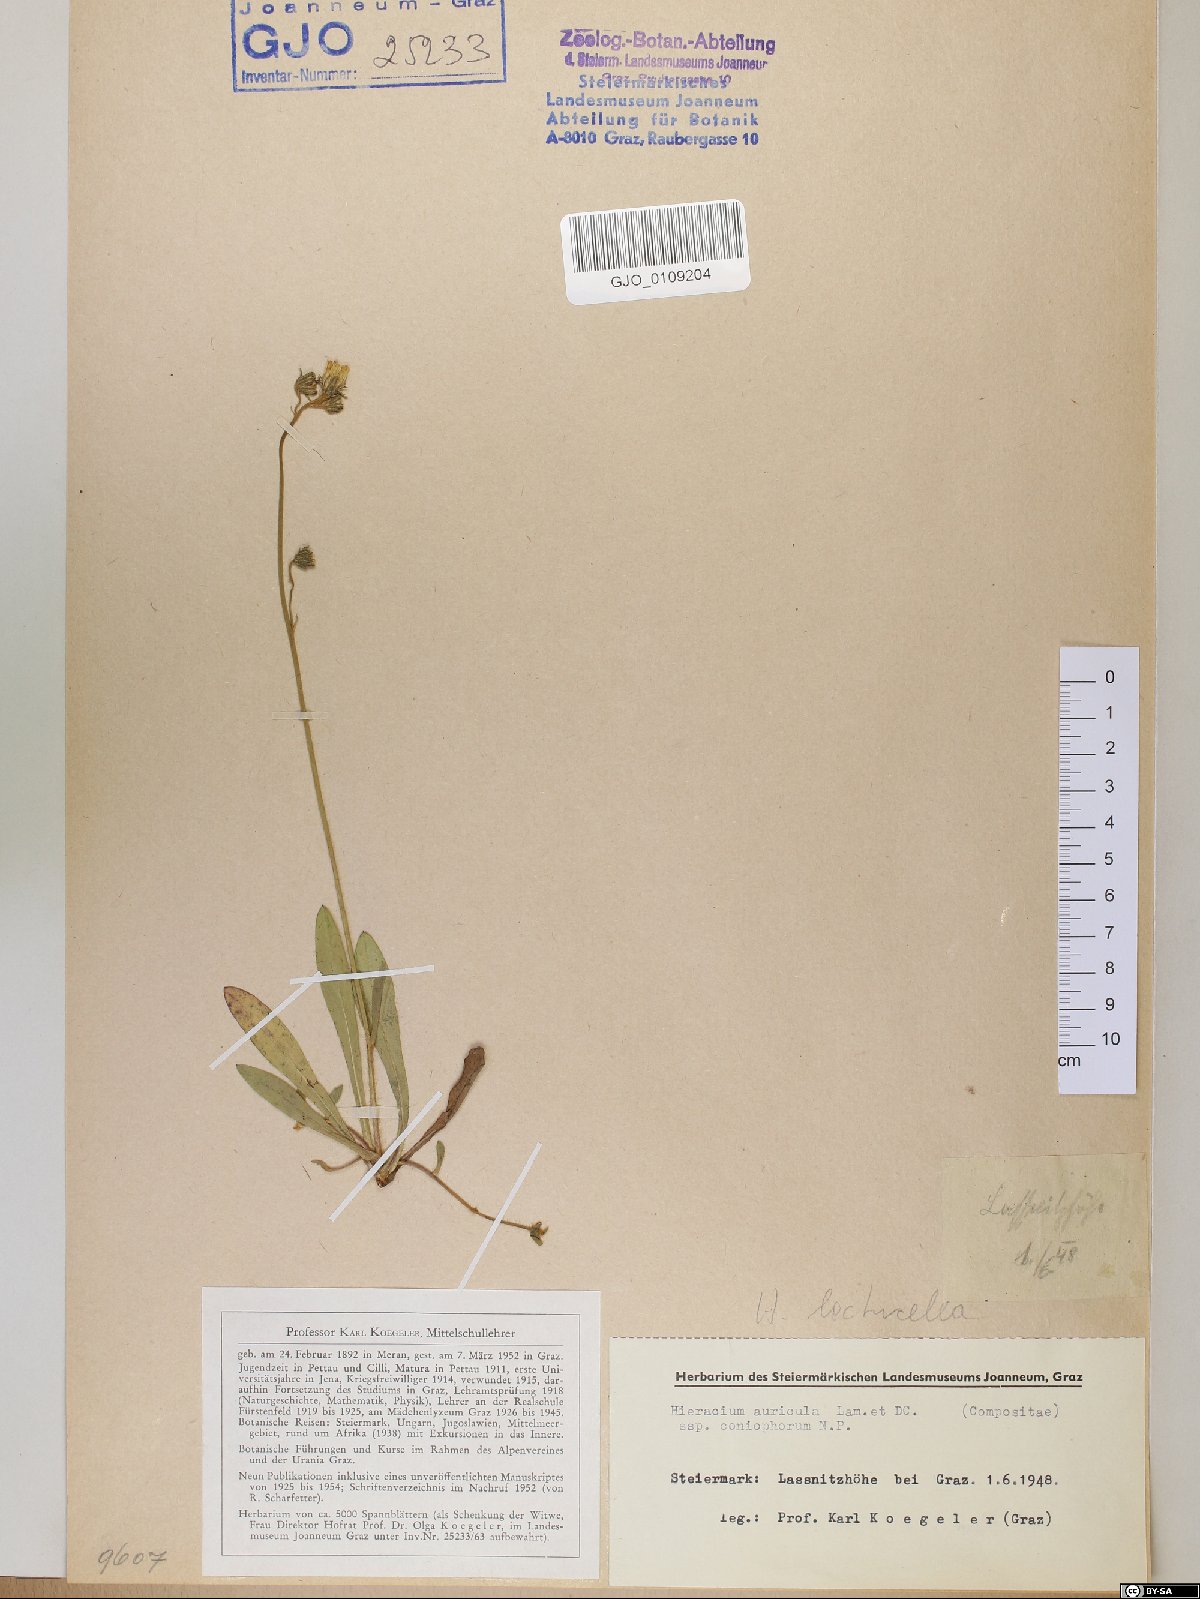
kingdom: Plantae
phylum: Tracheophyta
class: Magnoliopsida
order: Asterales
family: Asteraceae
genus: Hieracium
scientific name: Hieracium auricula
